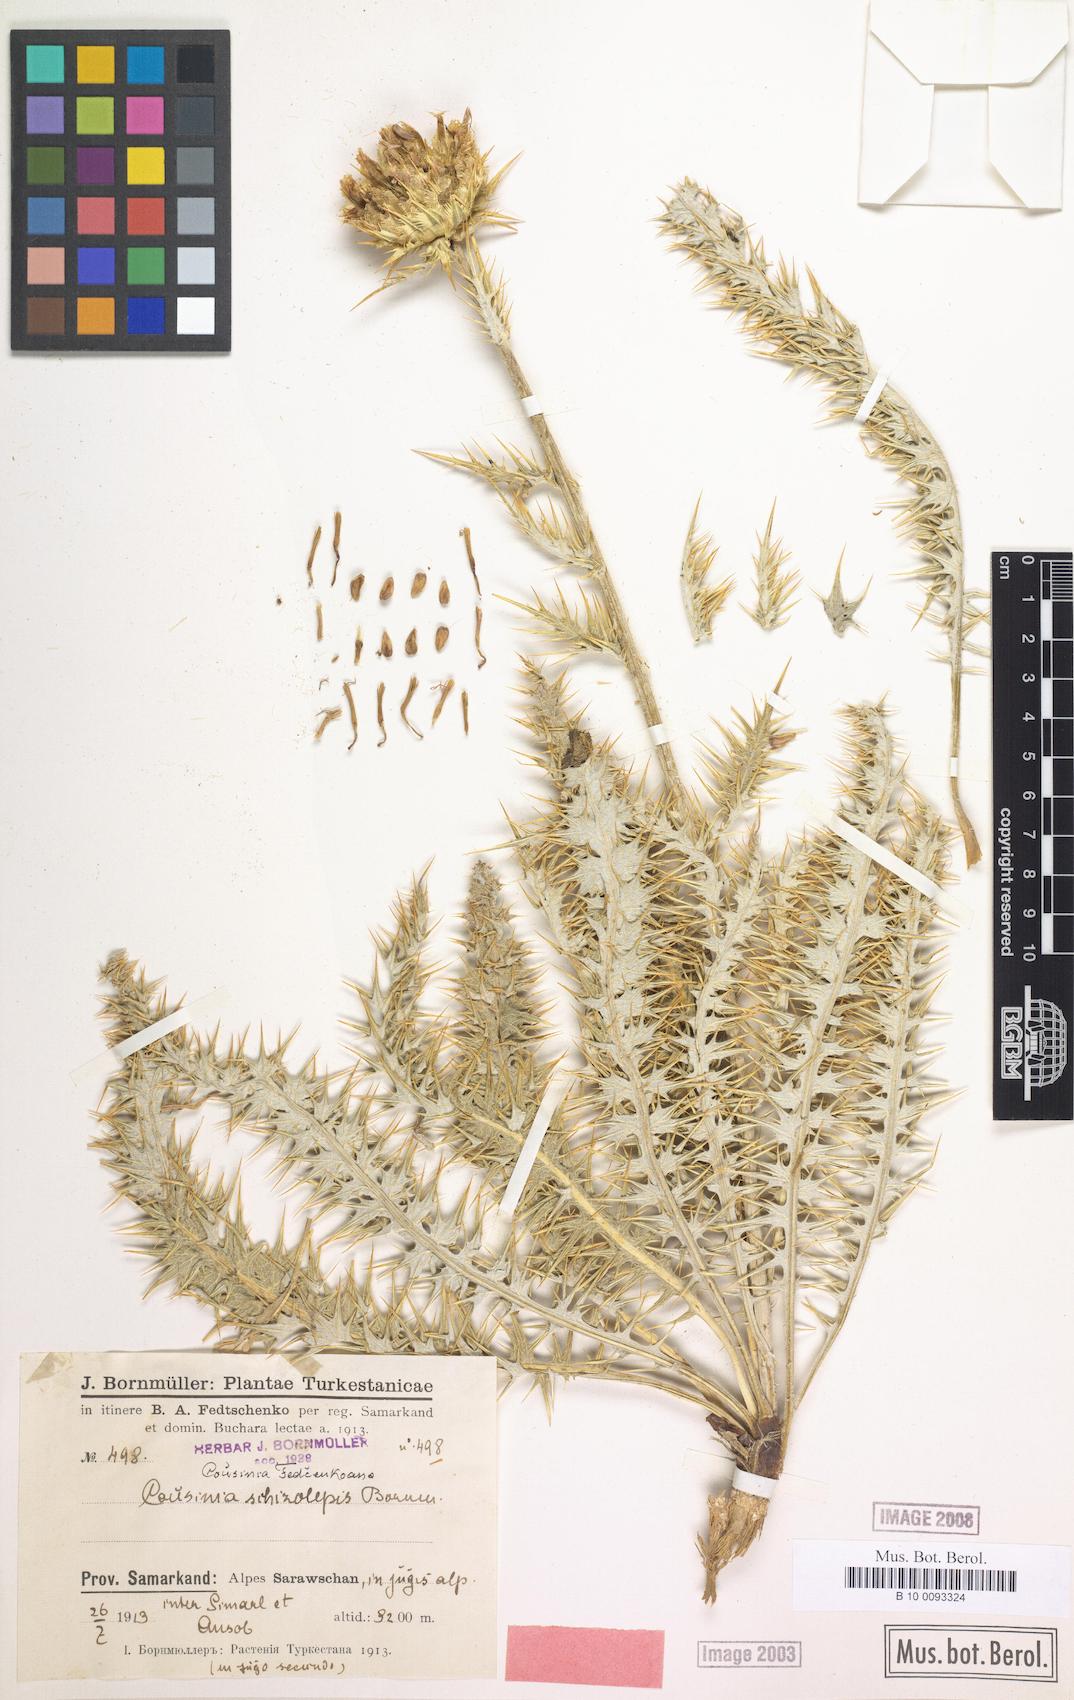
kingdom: Plantae
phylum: Tracheophyta
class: Magnoliopsida
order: Asterales
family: Asteraceae
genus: Arctium
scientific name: Arctium fedtschenkoanum
